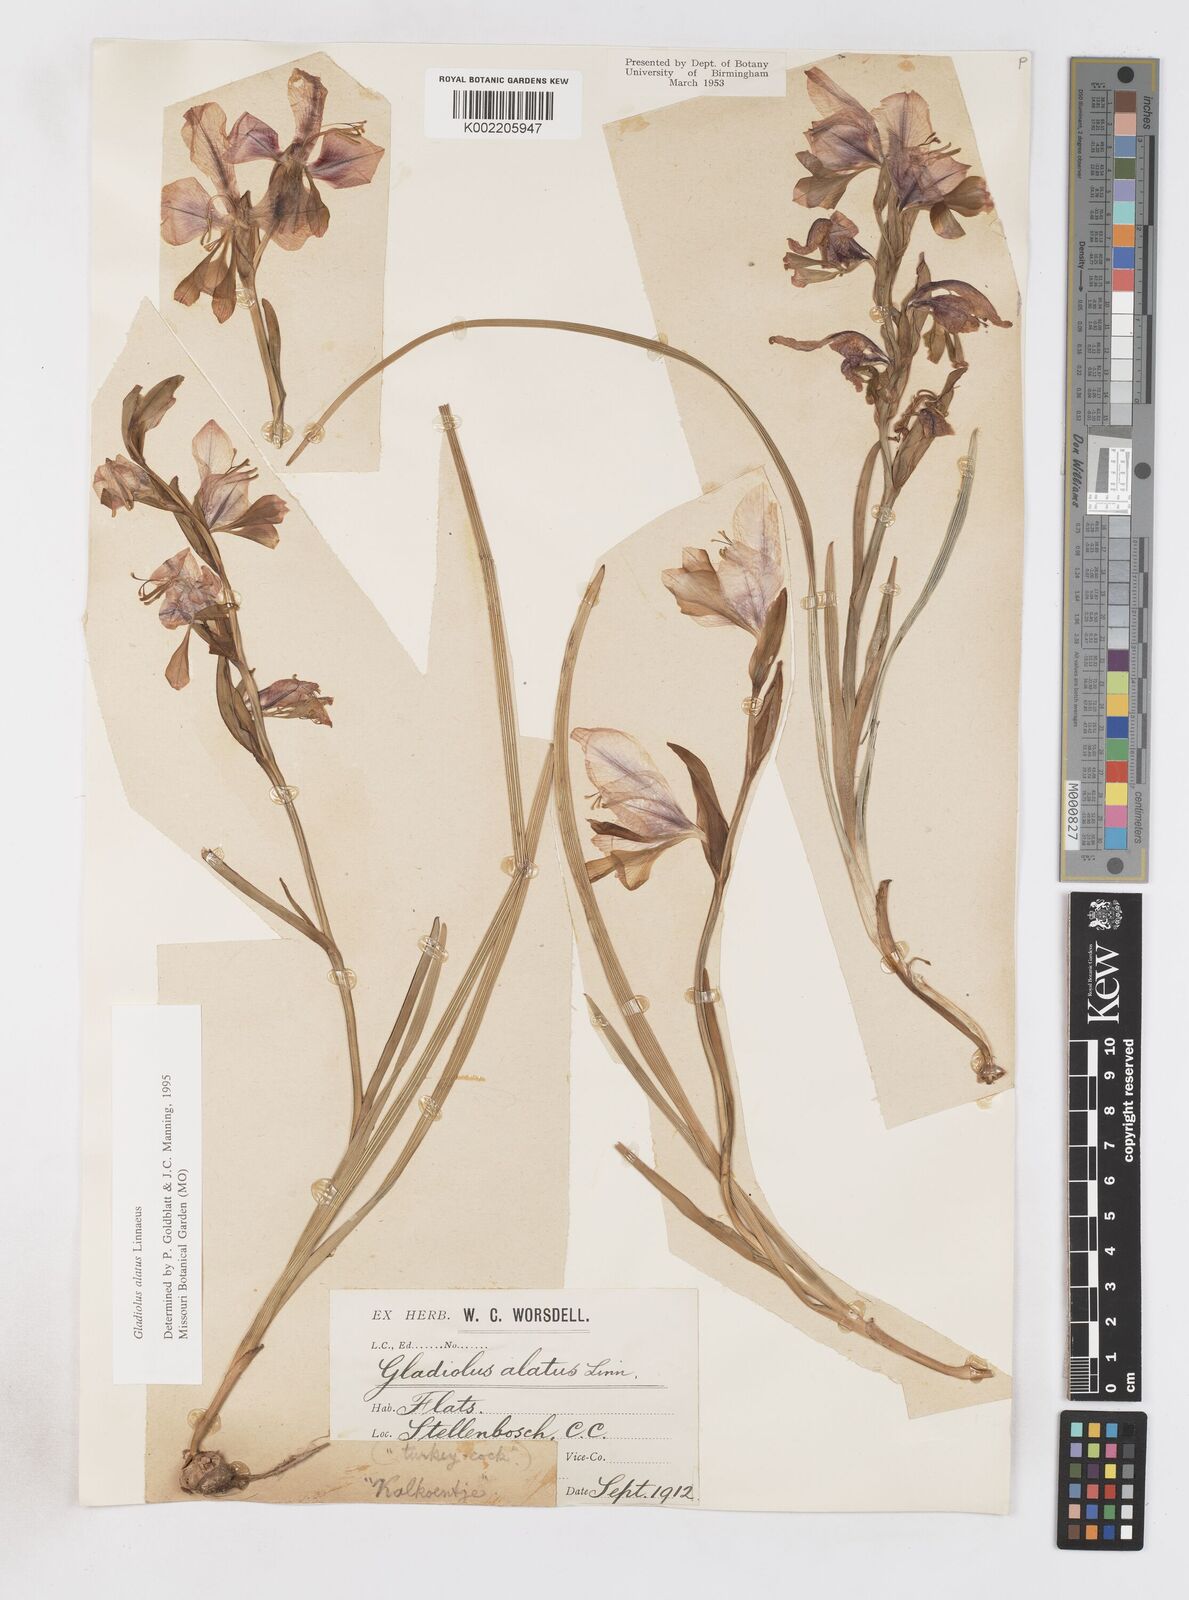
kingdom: Plantae
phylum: Tracheophyta
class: Liliopsida
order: Asparagales
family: Iridaceae
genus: Gladiolus
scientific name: Gladiolus alatus
